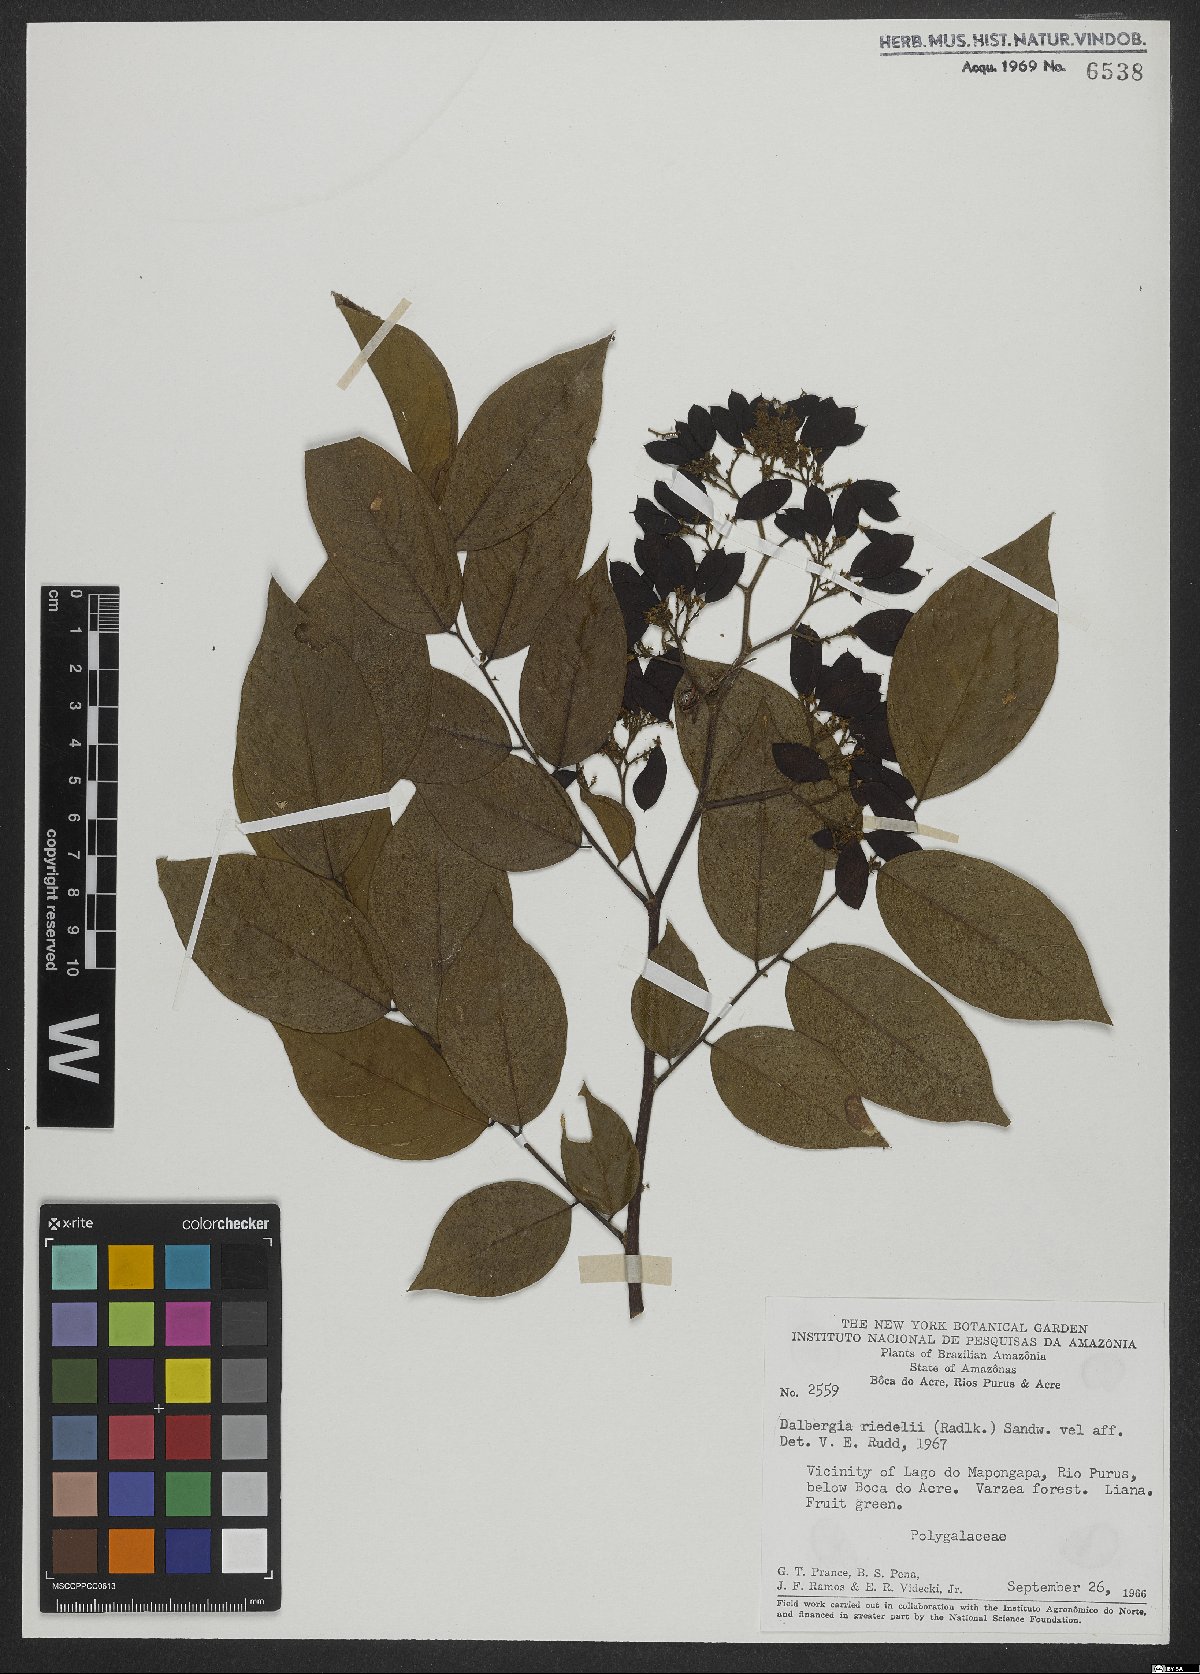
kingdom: Plantae
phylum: Tracheophyta
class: Magnoliopsida
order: Fabales
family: Fabaceae
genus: Dalbergia
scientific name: Dalbergia riedelii
